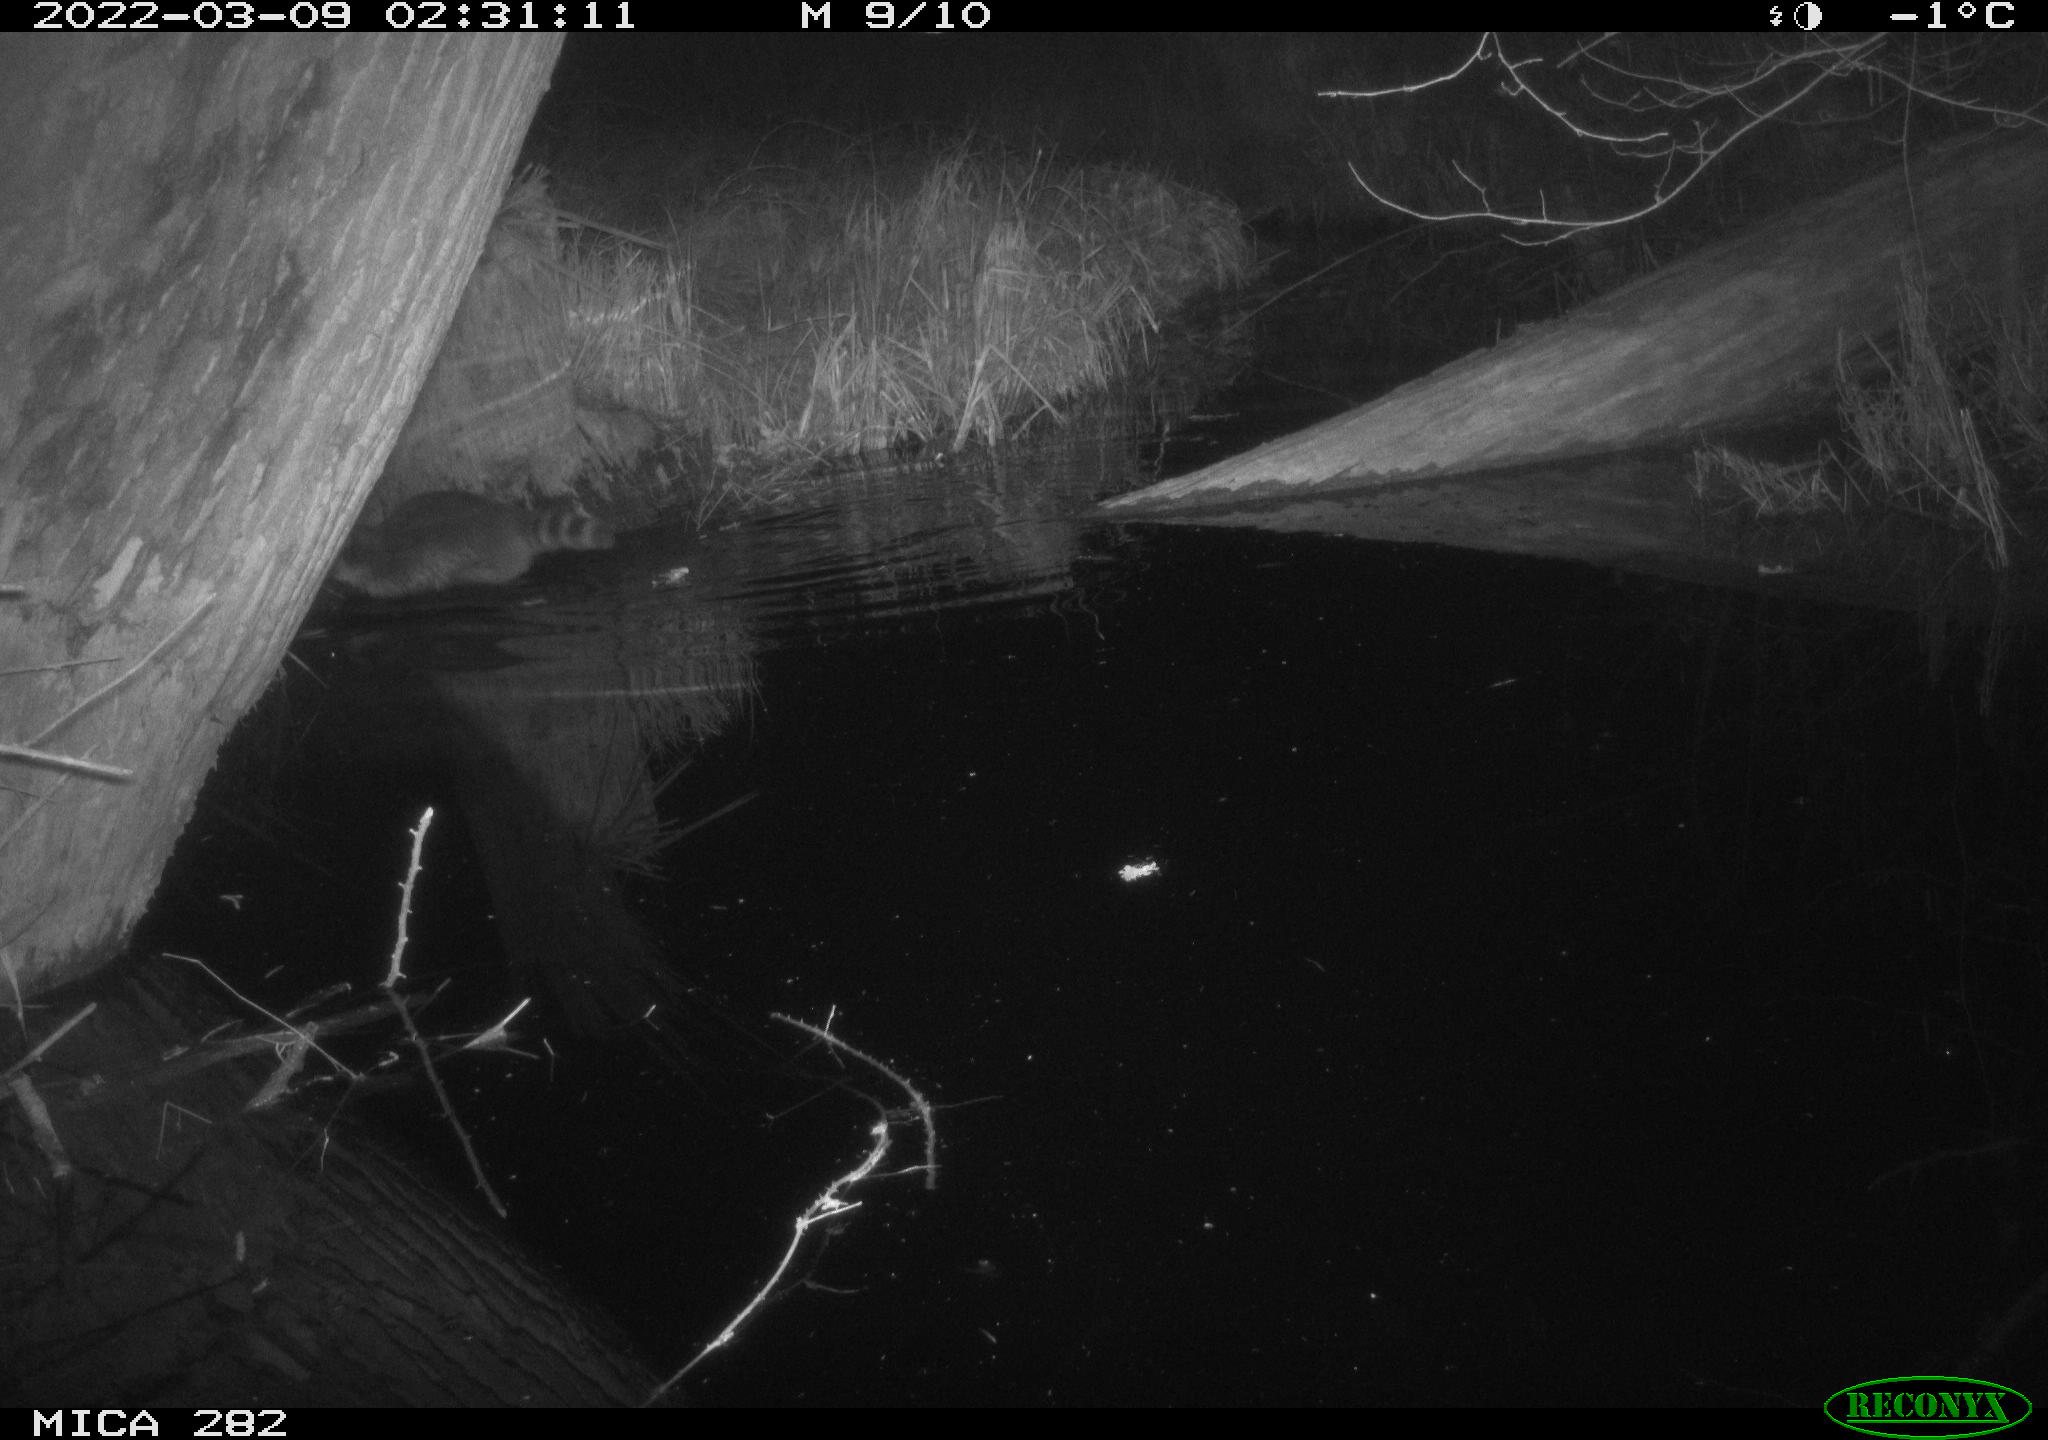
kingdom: Animalia
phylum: Chordata
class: Mammalia
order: Carnivora
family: Procyonidae
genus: Procyon
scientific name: Procyon lotor
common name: Raccoon
